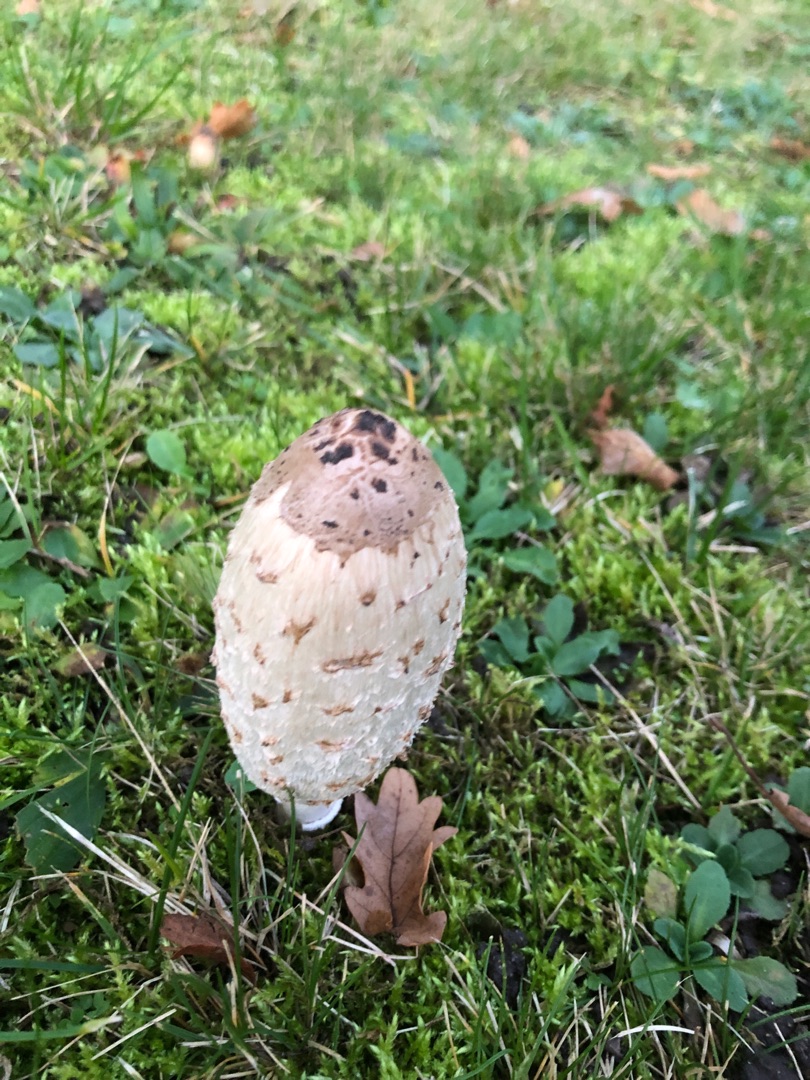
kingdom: Fungi
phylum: Basidiomycota
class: Agaricomycetes
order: Agaricales
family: Agaricaceae
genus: Coprinus
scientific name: Coprinus comatus
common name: Stor parykhat
